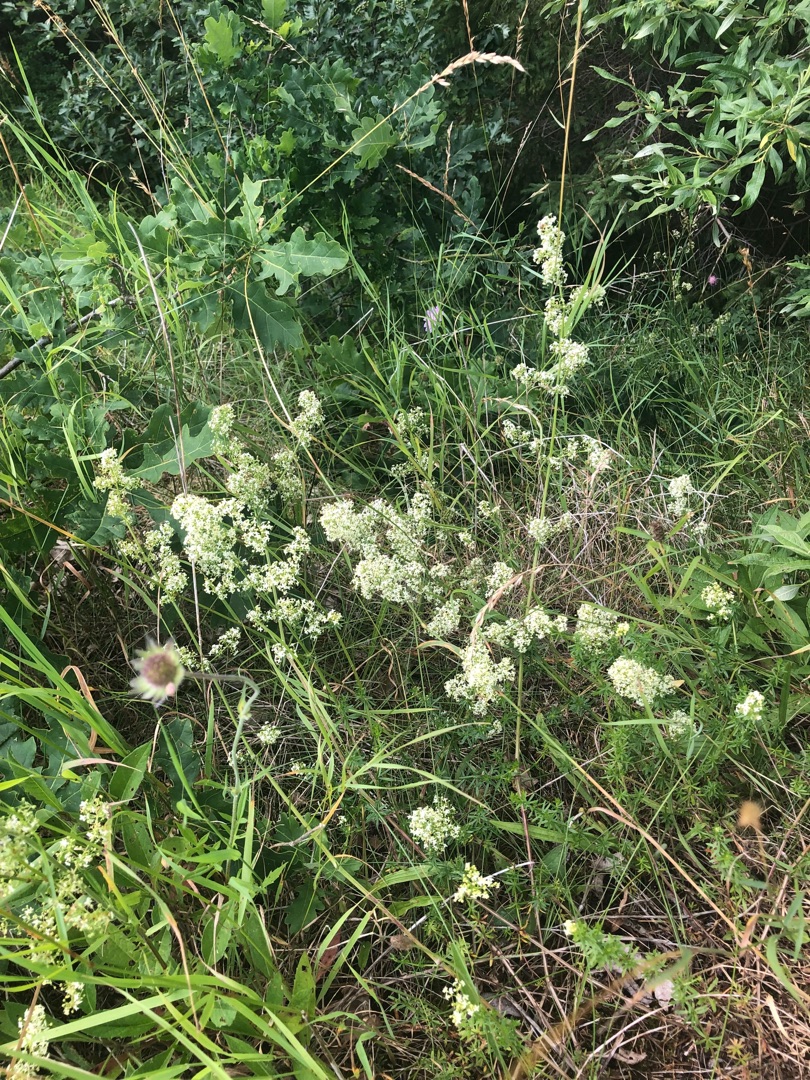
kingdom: Plantae
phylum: Tracheophyta
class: Magnoliopsida
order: Gentianales
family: Rubiaceae
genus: Galium
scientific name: Galium mollugo
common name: Hvid snerre
